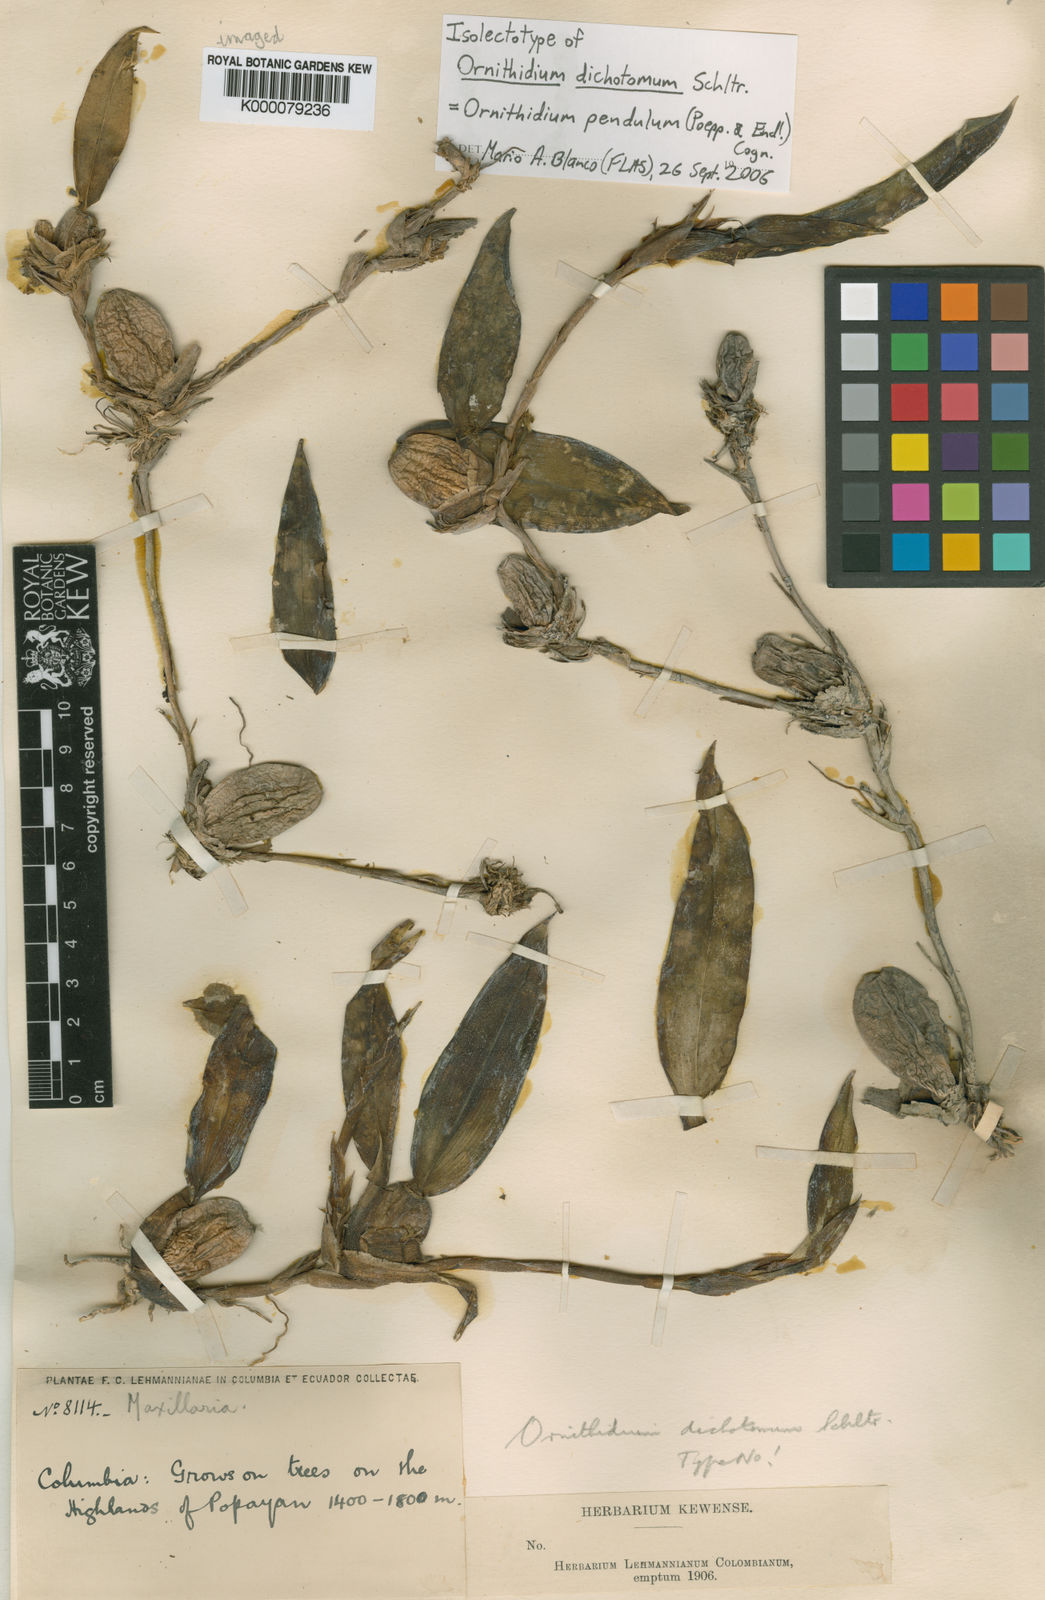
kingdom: Plantae
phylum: Tracheophyta
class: Liliopsida
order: Asparagales
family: Orchidaceae
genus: Maxillaria
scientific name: Maxillaria dolichophylla
